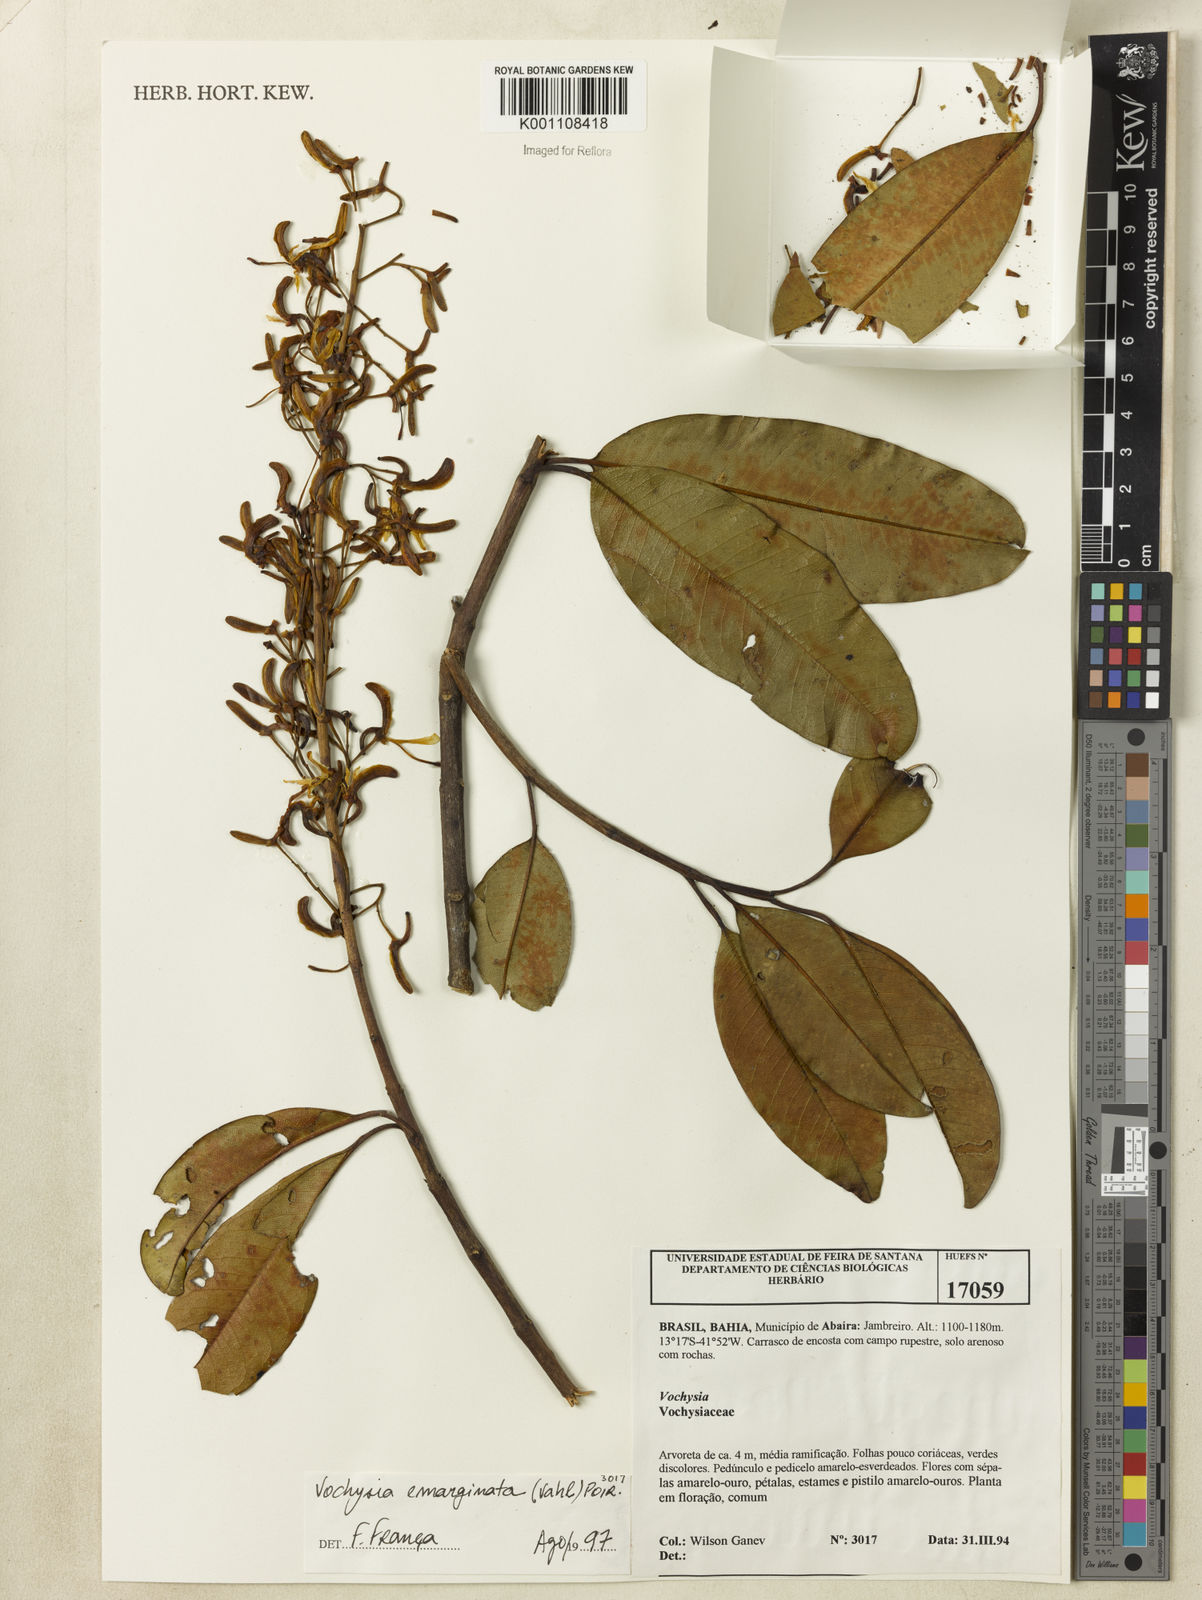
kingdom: Plantae
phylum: Tracheophyta
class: Magnoliopsida
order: Myrtales
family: Vochysiaceae
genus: Vochysia
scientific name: Vochysia
